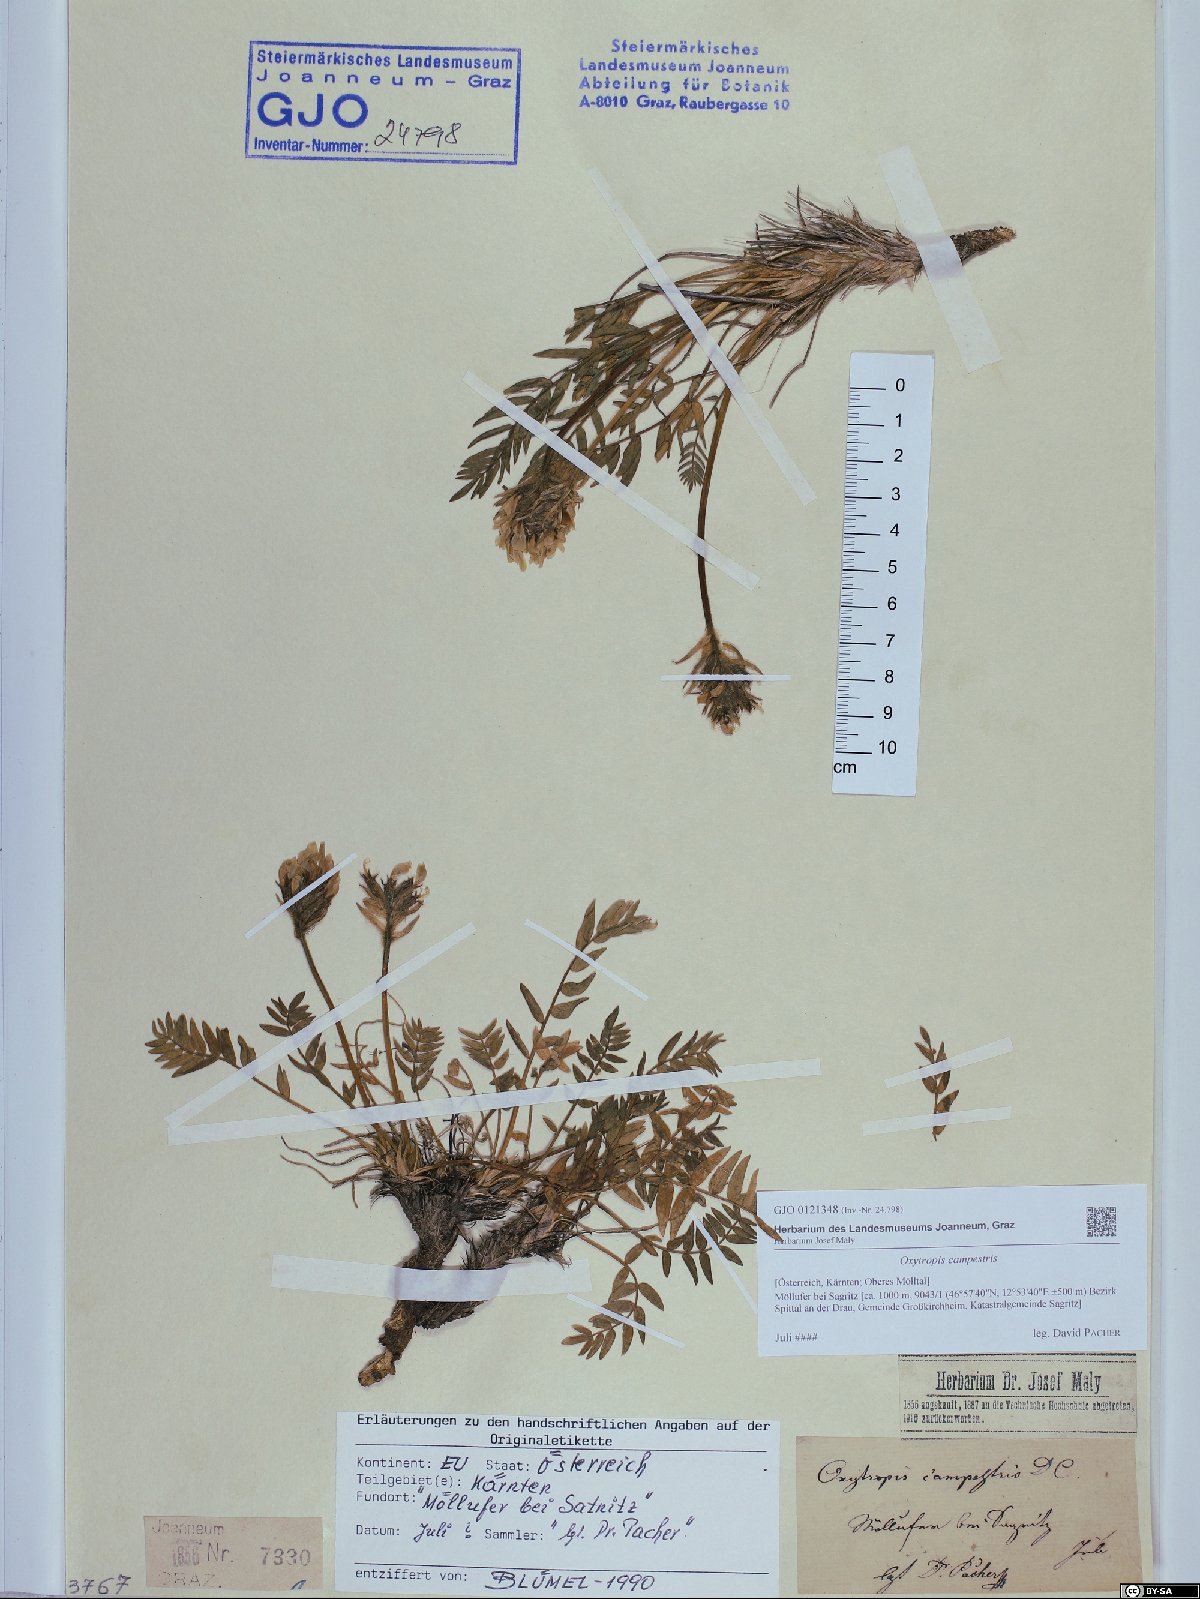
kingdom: Plantae
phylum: Tracheophyta
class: Magnoliopsida
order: Fabales
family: Fabaceae
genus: Oxytropis
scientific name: Oxytropis campestris
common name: Field locoweed
